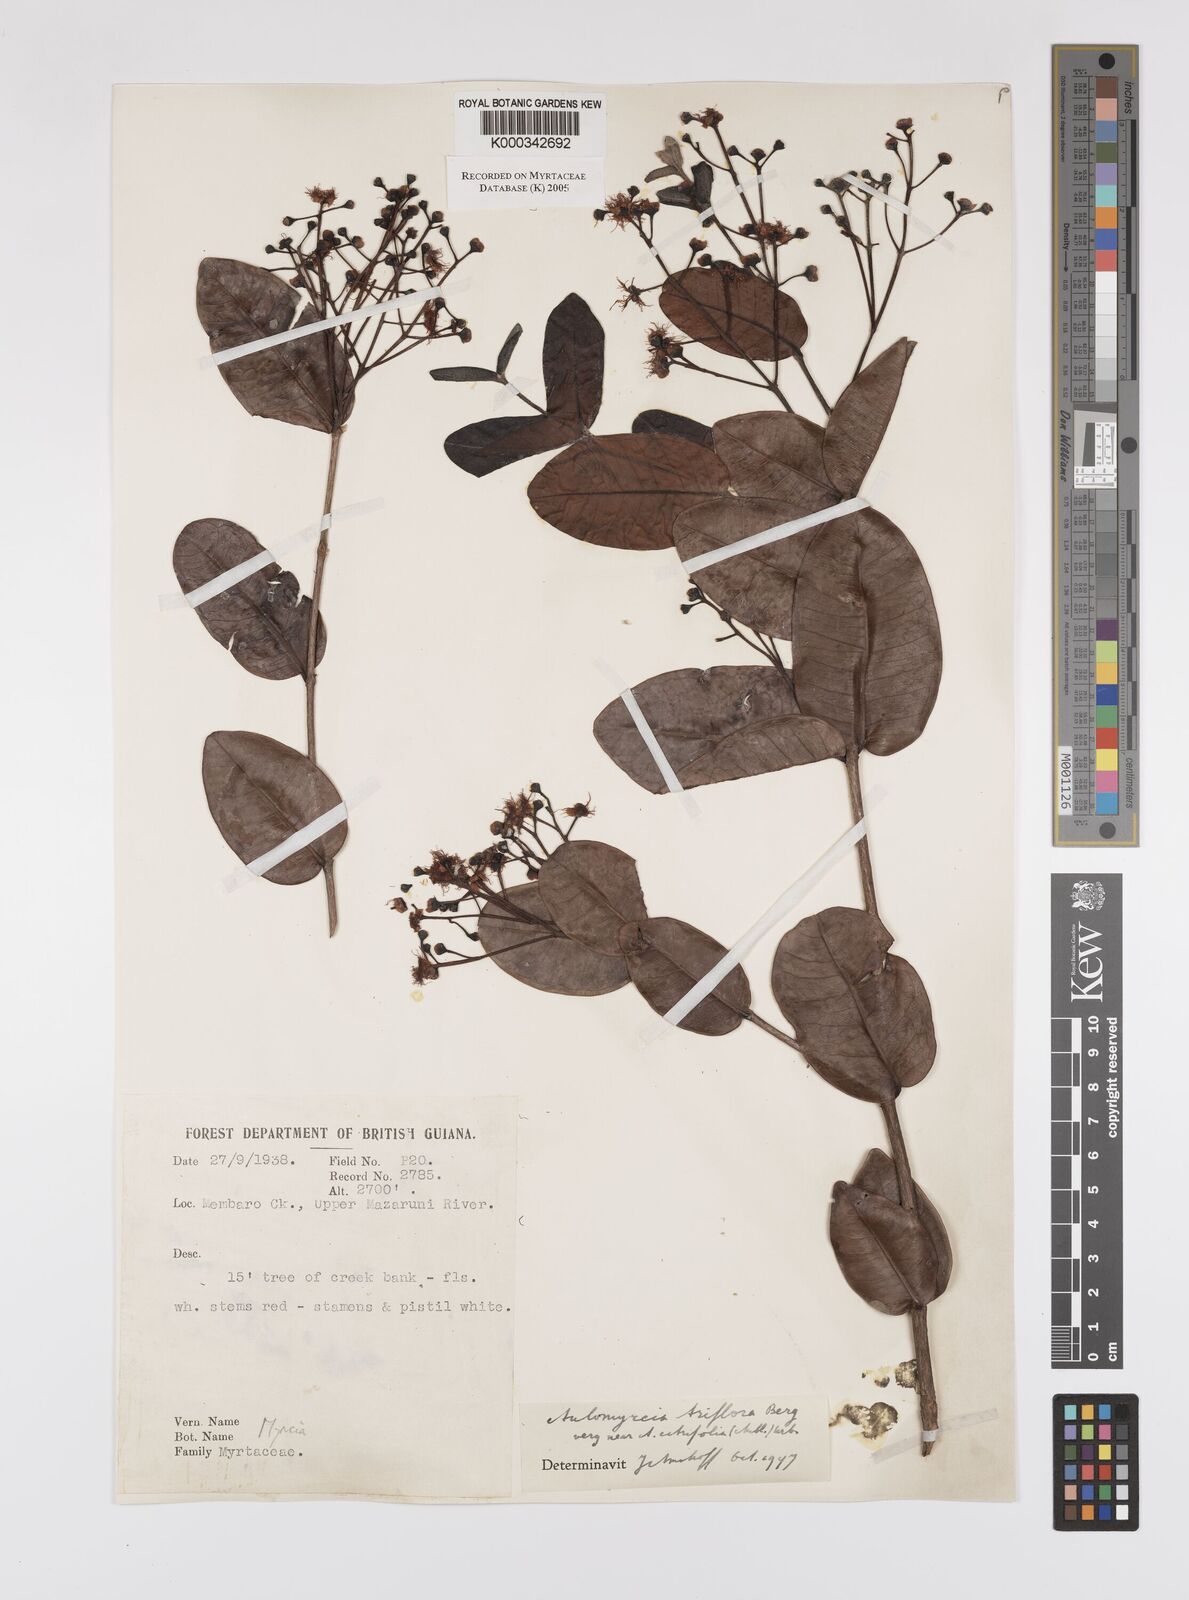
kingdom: Plantae
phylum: Tracheophyta
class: Magnoliopsida
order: Myrtales
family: Myrtaceae
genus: Myrcia
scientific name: Myrcia guianensis
